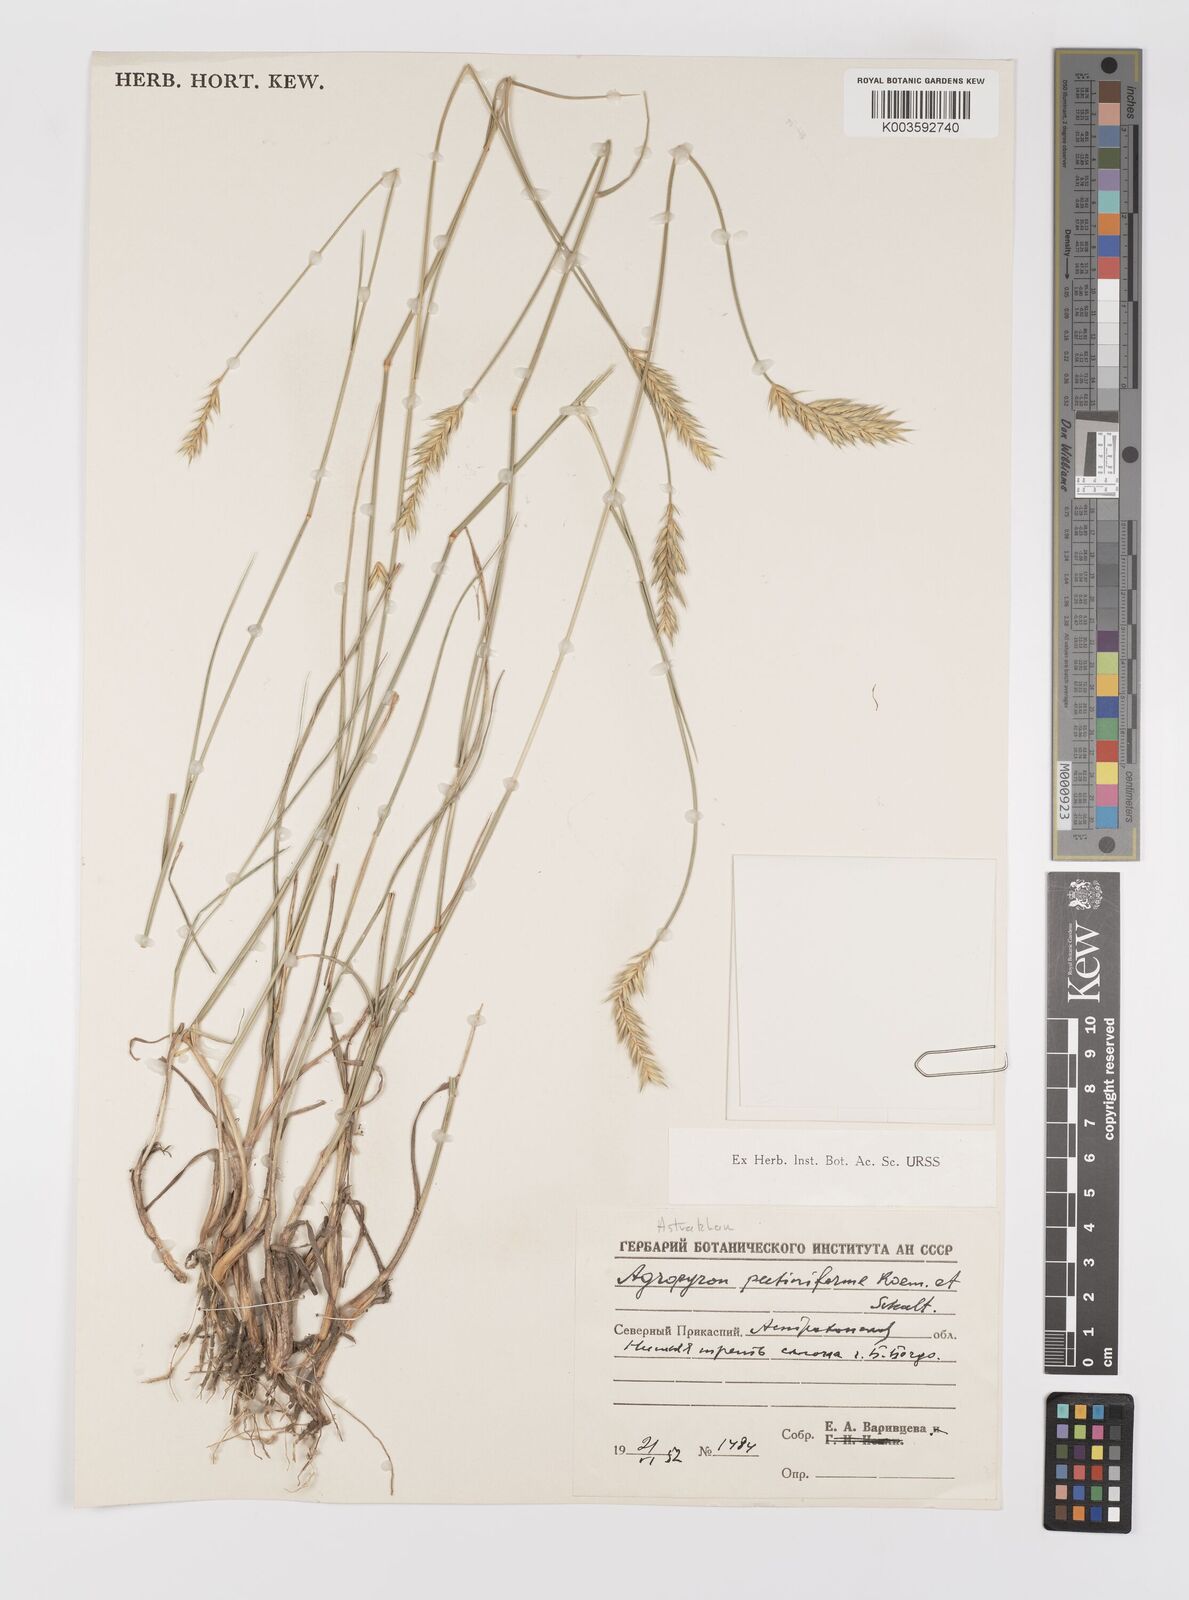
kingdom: Plantae
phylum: Tracheophyta
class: Liliopsida
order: Poales
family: Poaceae
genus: Agropyron
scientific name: Agropyron cristatum
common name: Crested wheatgrass
